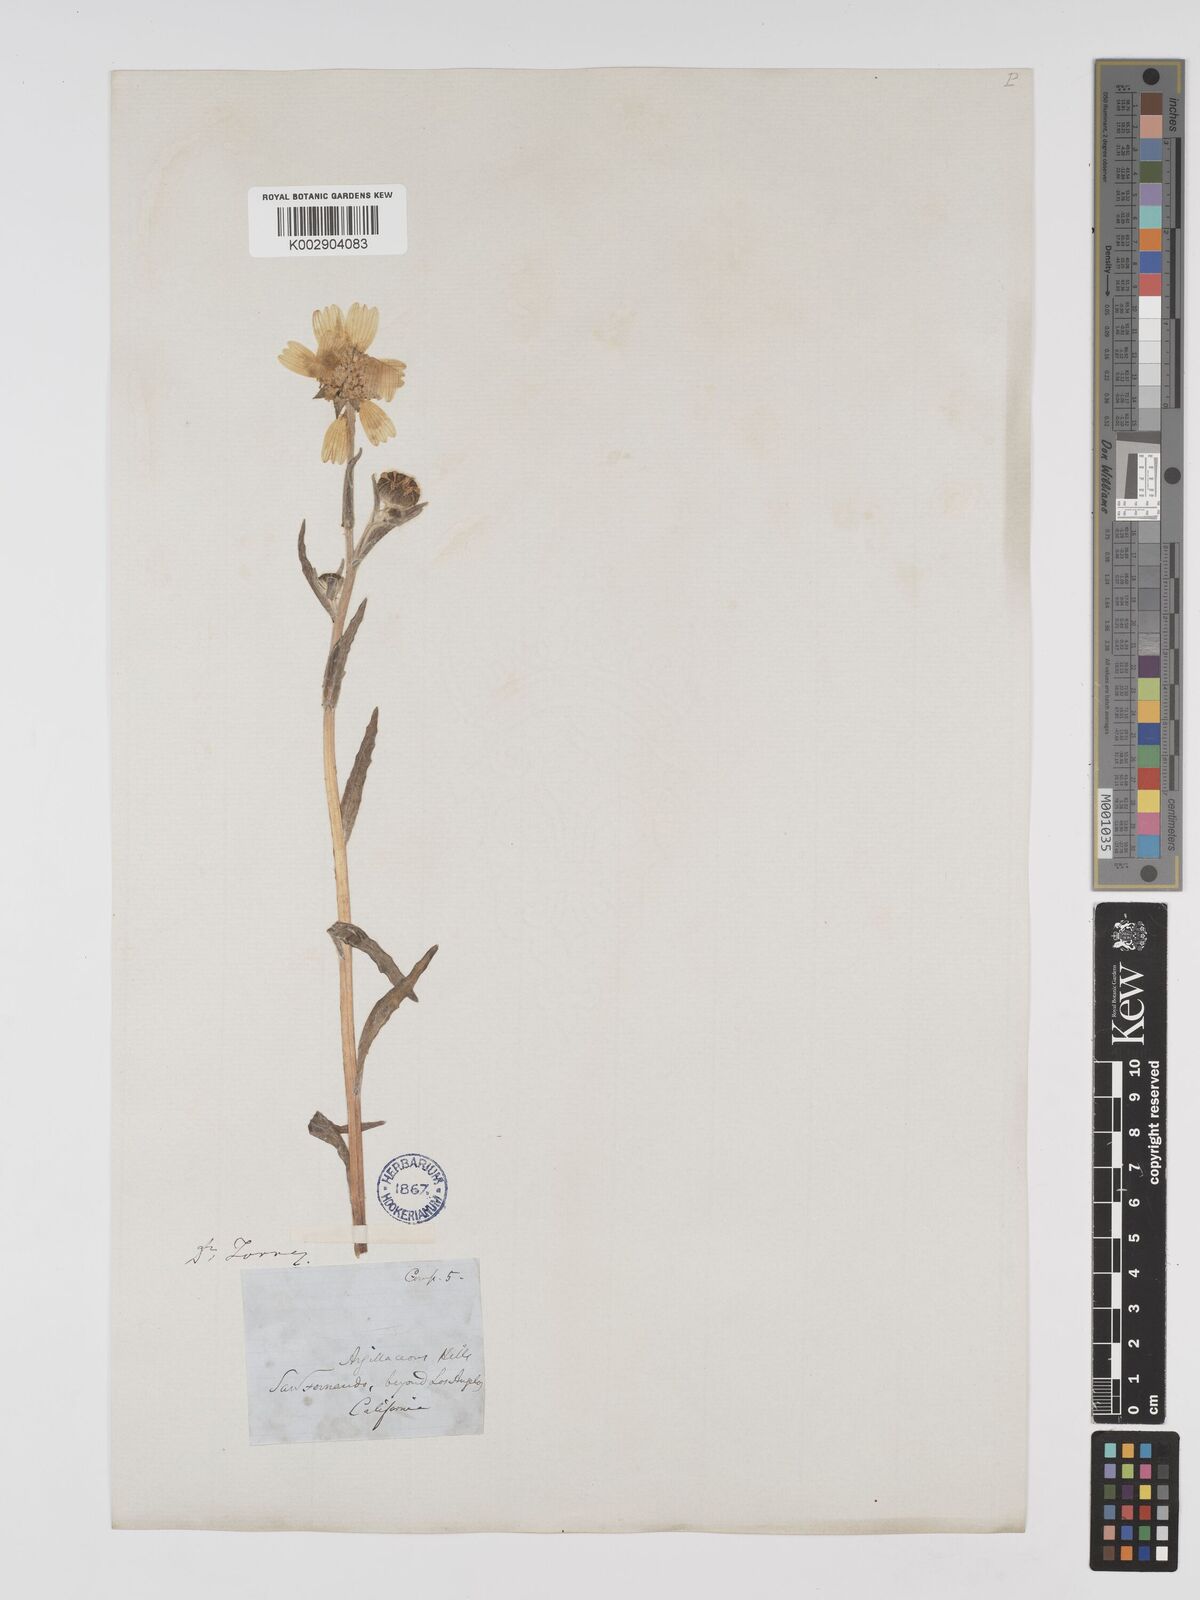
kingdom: Plantae
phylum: Tracheophyta
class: Magnoliopsida
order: Asterales
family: Asteraceae
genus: Monolopia
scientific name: Monolopia major
